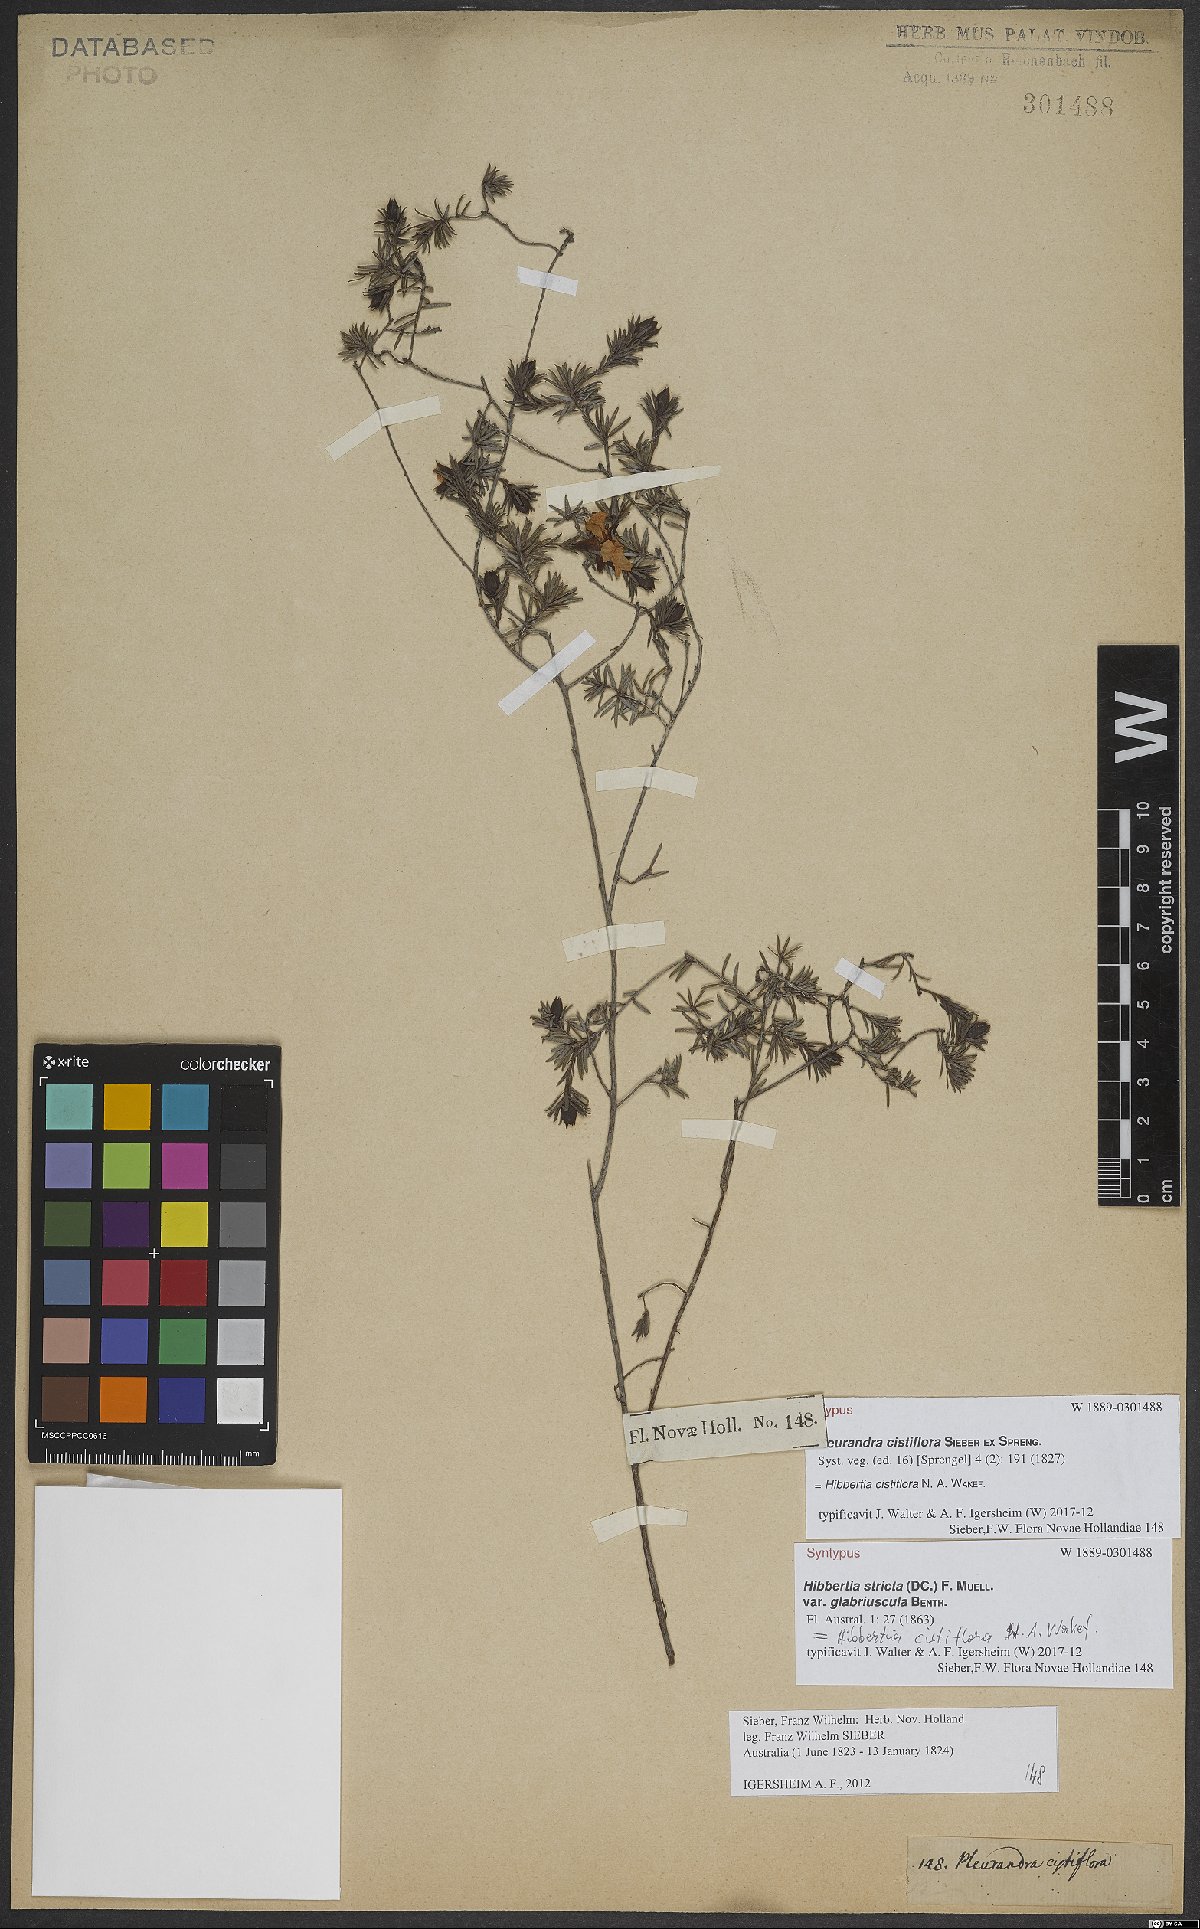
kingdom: Plantae
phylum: Tracheophyta
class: Magnoliopsida
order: Dilleniales
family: Dilleniaceae
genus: Hibbertia
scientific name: Hibbertia cistiflora
